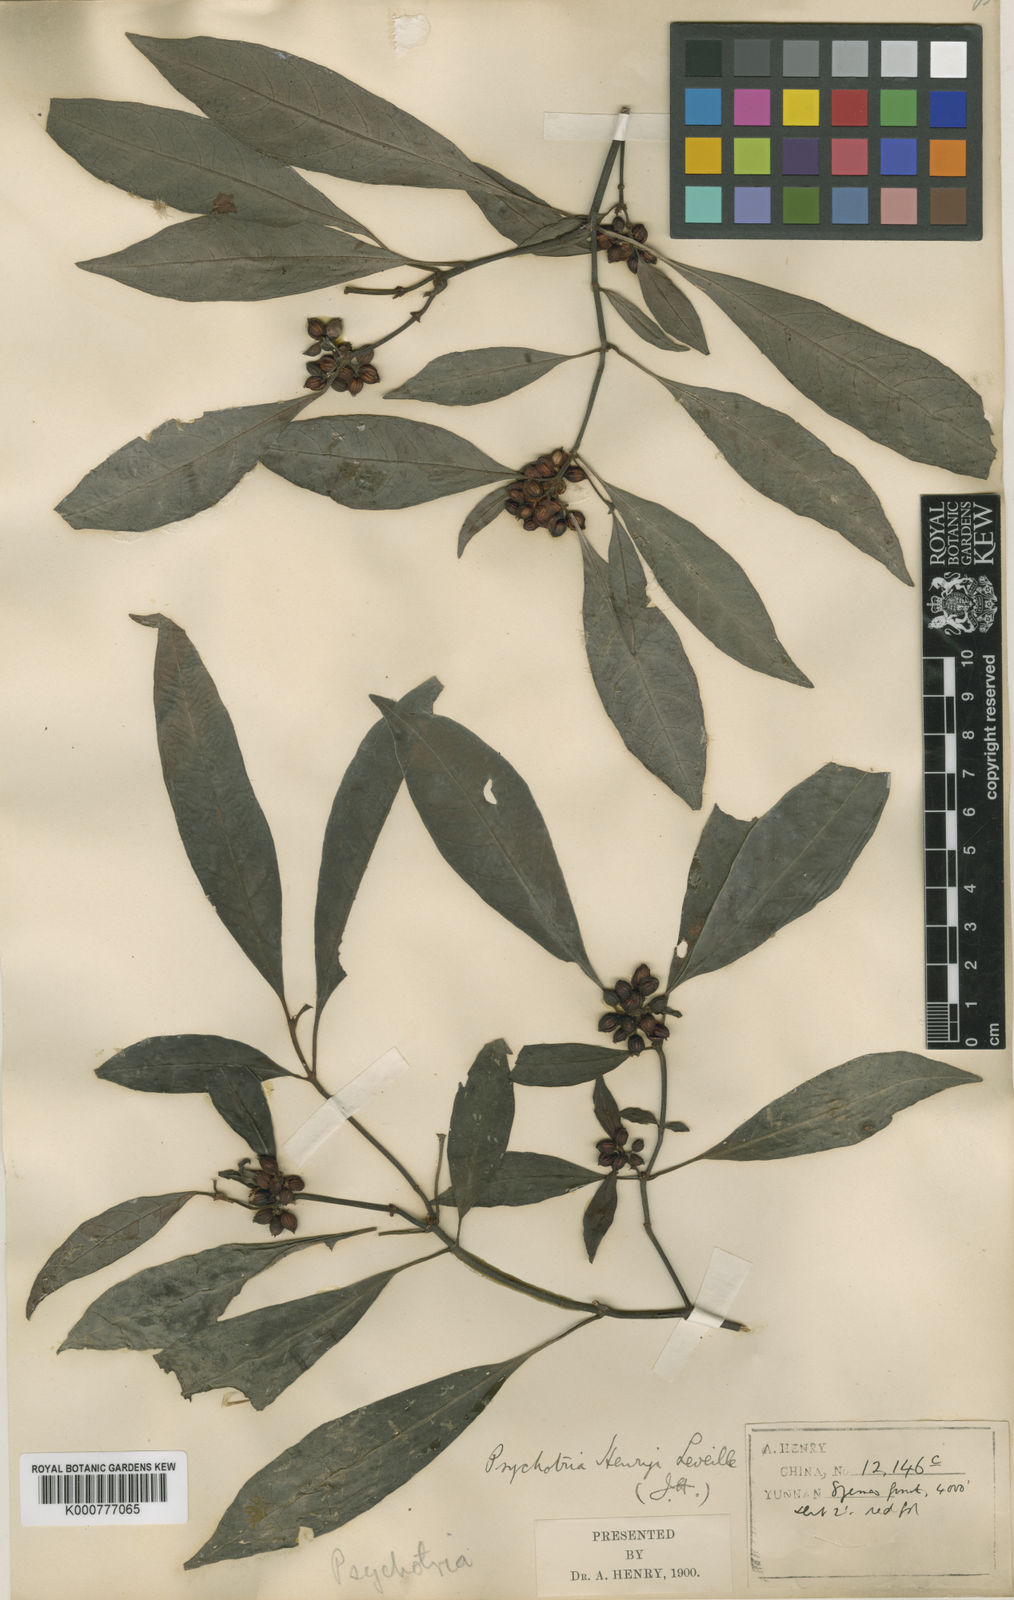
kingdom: Plantae
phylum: Tracheophyta
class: Magnoliopsida
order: Gentianales
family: Rubiaceae
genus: Psychotria
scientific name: Psychotria
